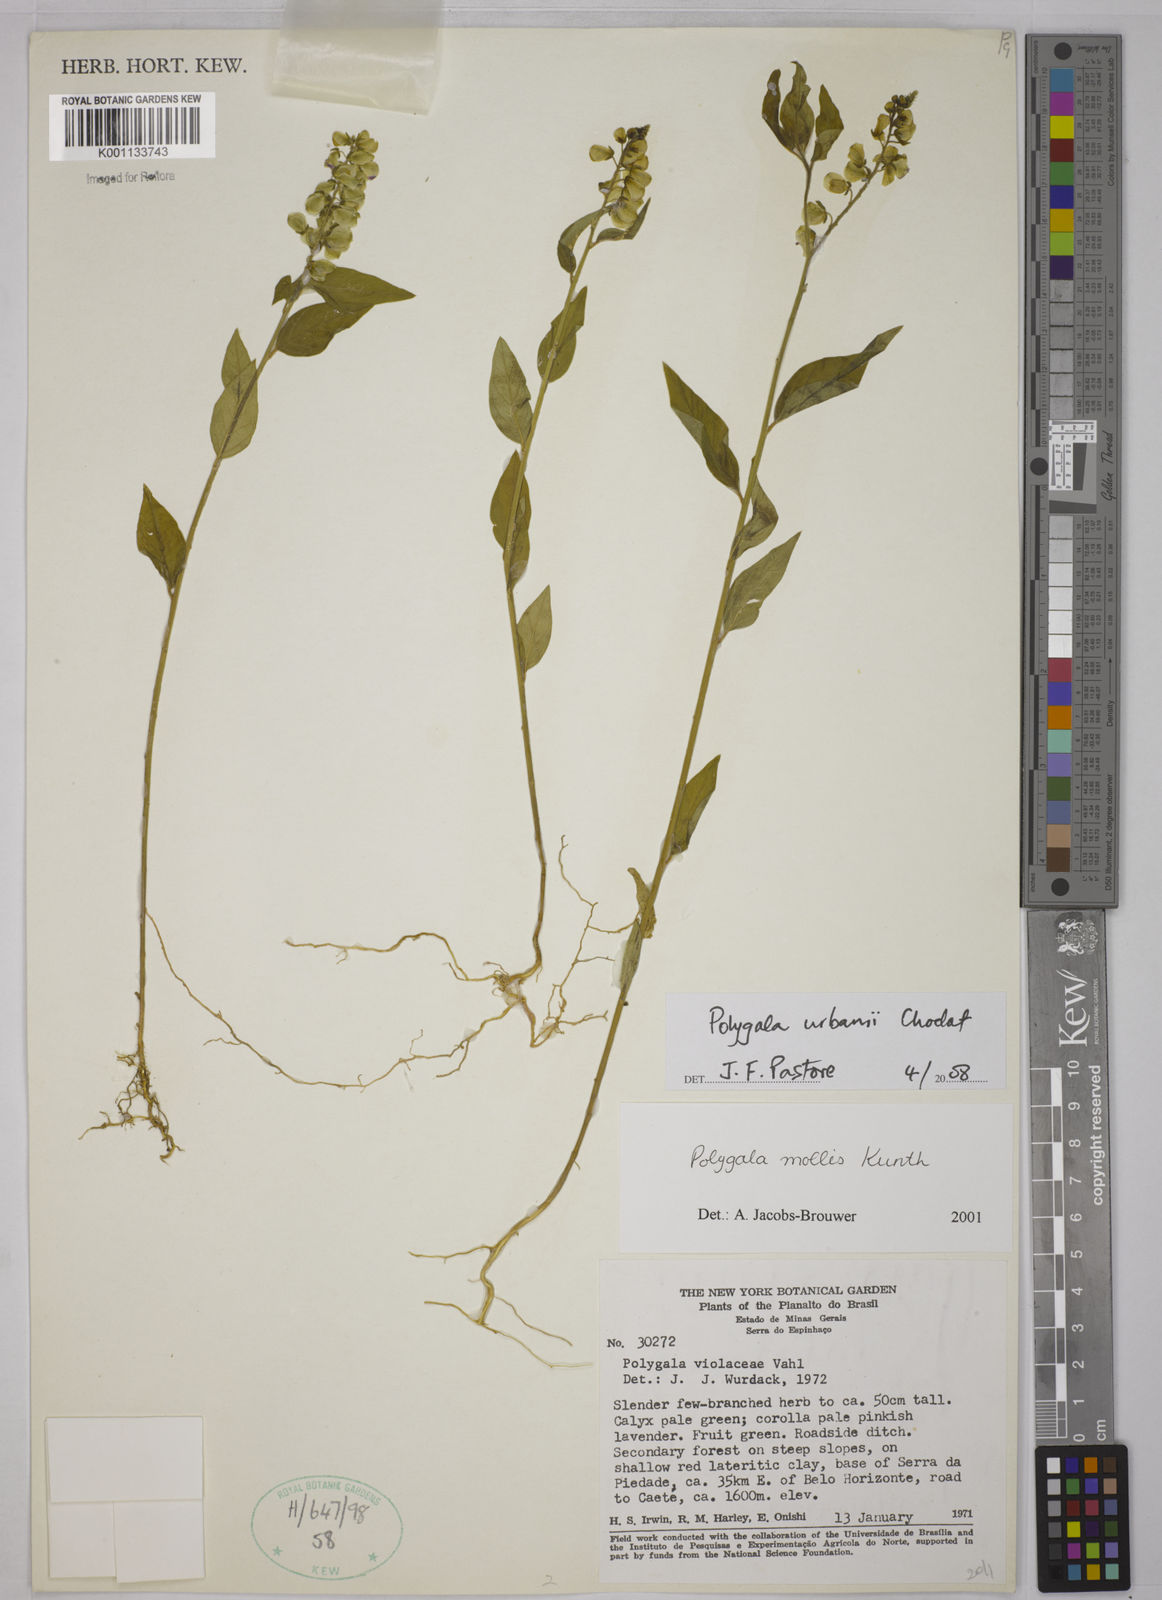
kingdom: Plantae
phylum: Tracheophyta
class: Magnoliopsida
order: Fabales
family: Polygalaceae
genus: Asemeia
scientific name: Asemeia monninoides
